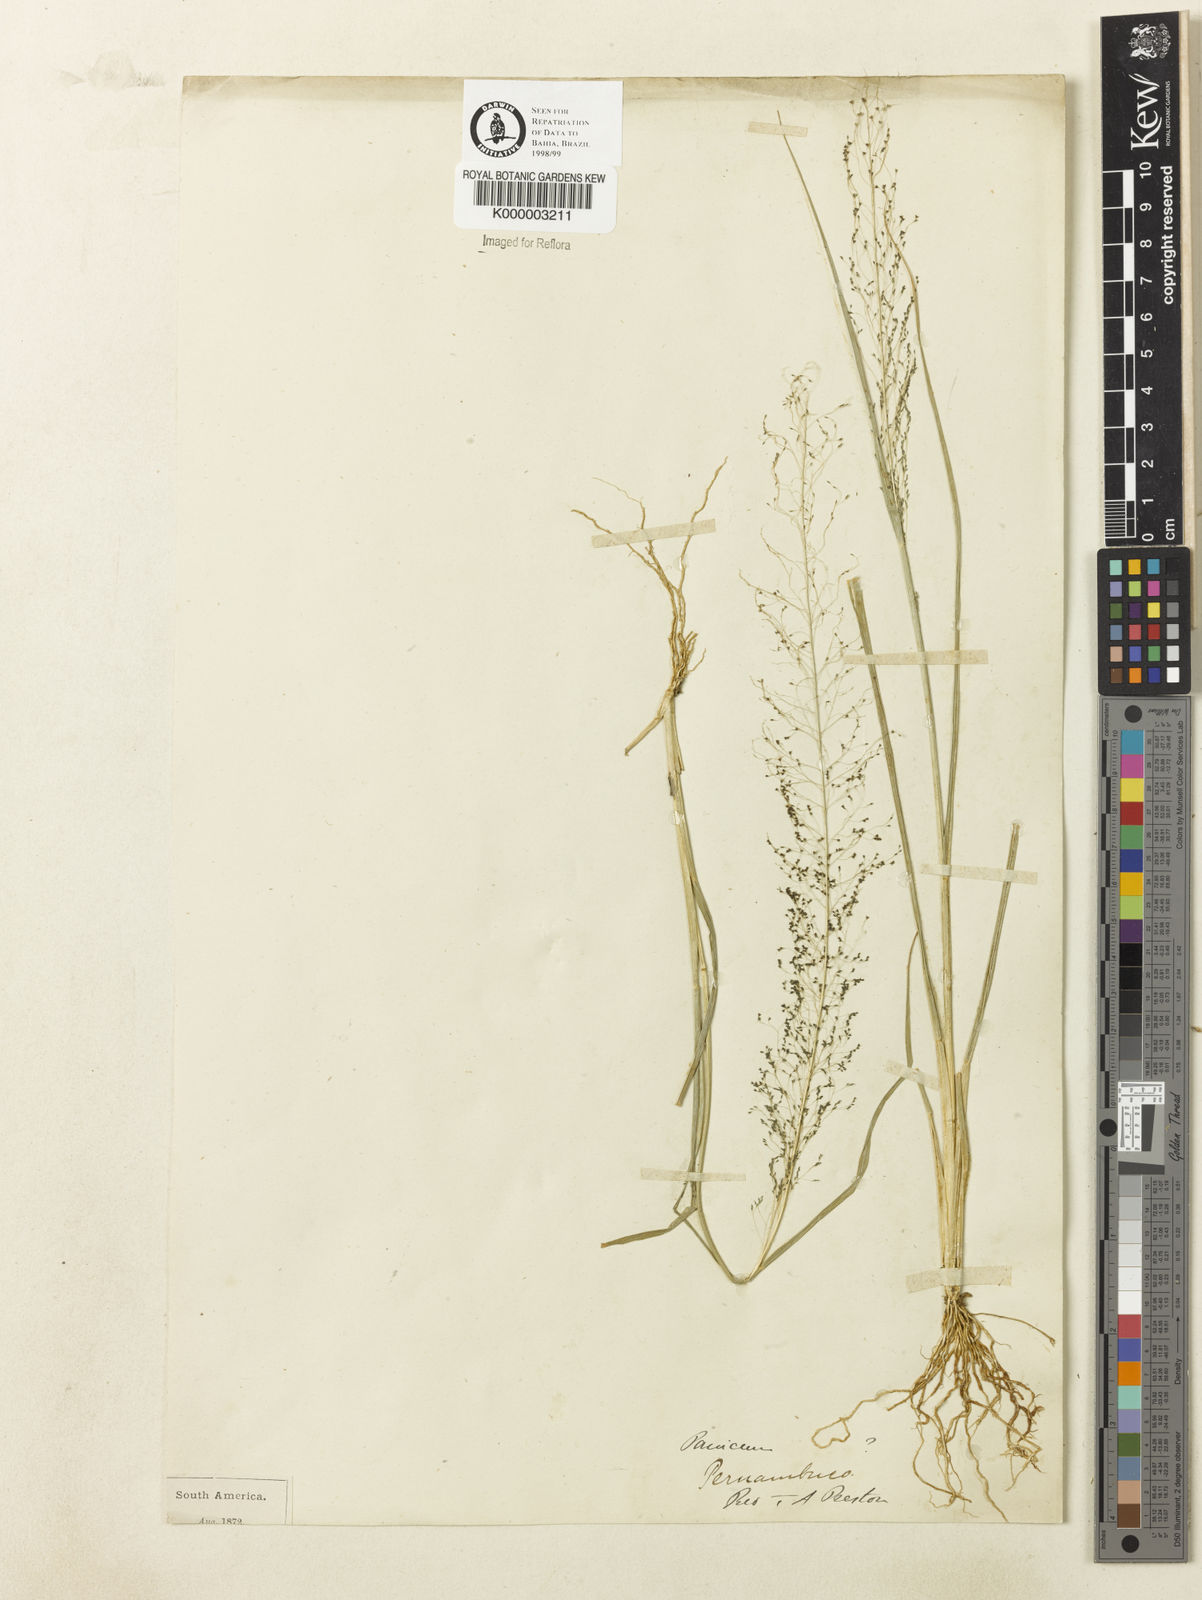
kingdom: Plantae
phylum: Tracheophyta
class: Liliopsida
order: Poales
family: Poaceae
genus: Sporobolus
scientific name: Sporobolus tenuissimus
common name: Tropical dropseed
